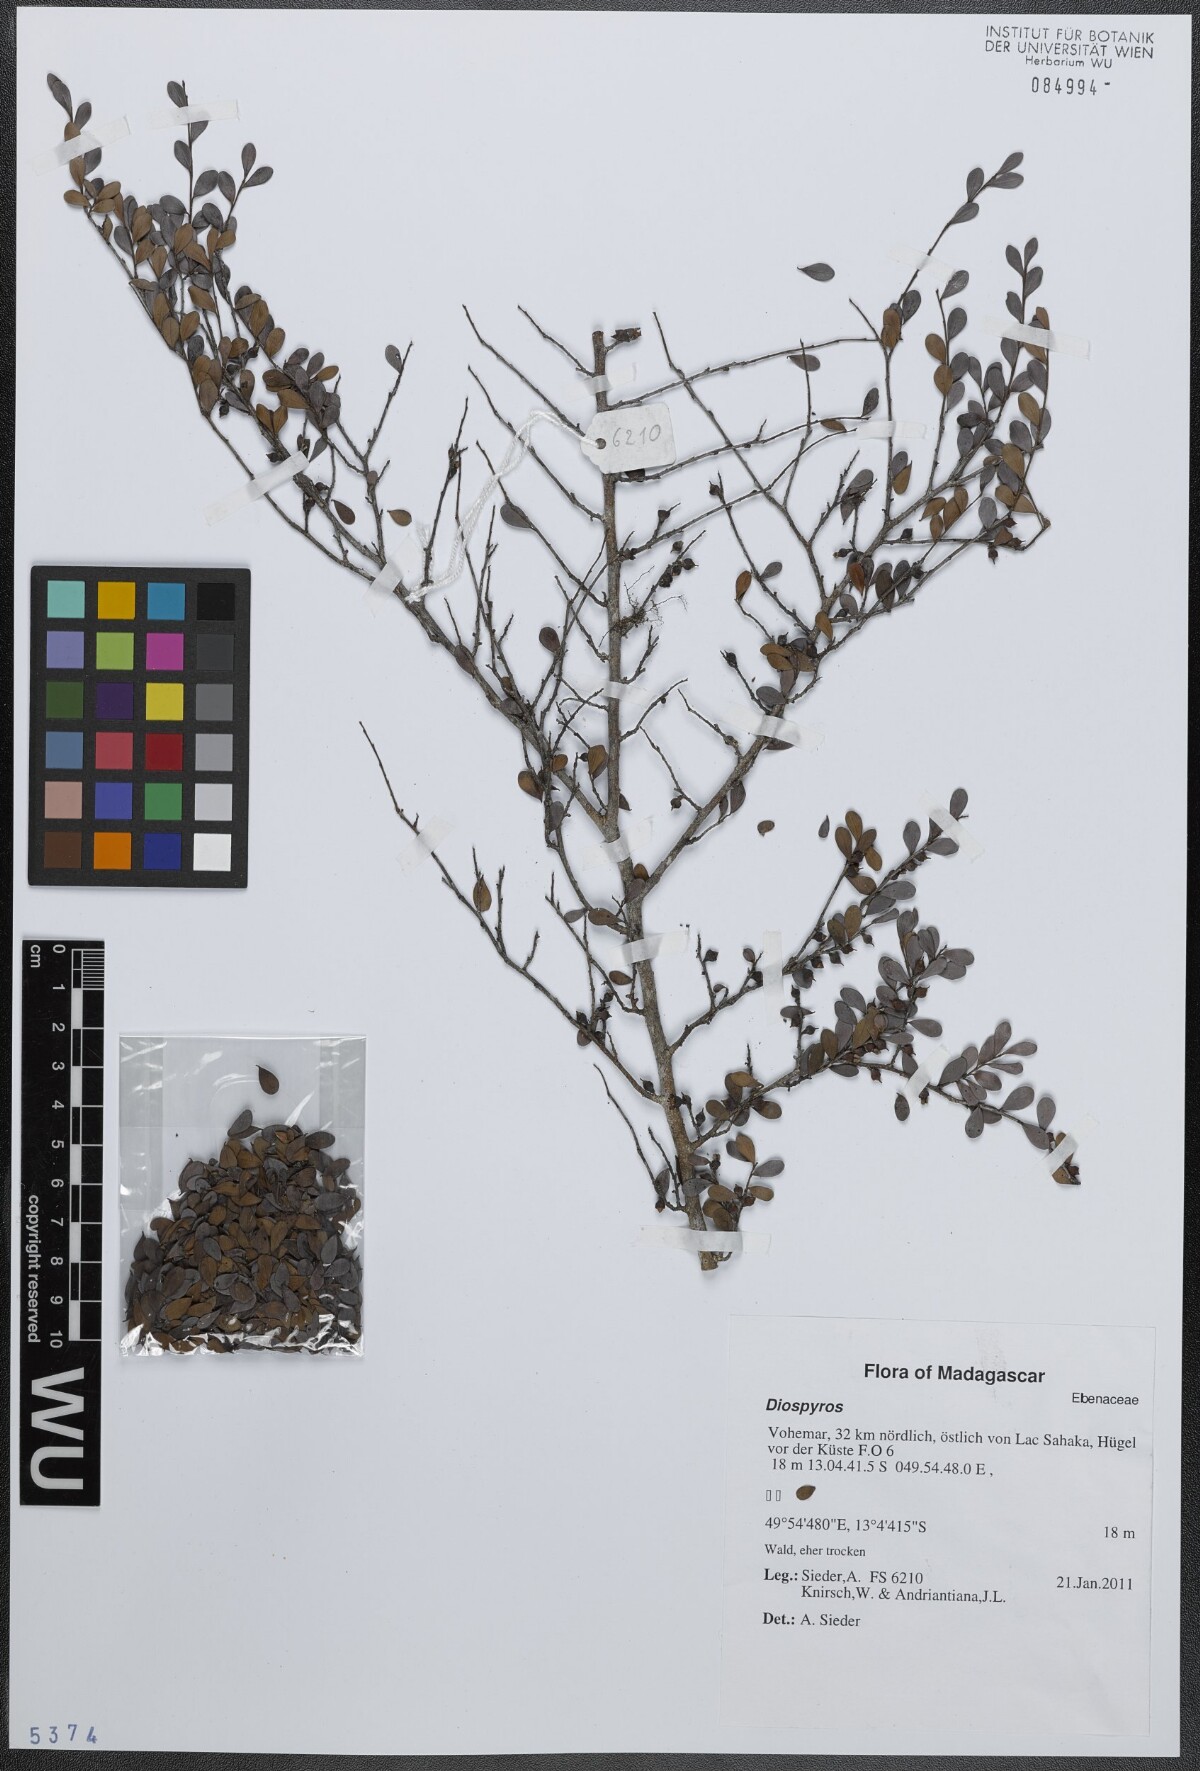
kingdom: Plantae
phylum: Tracheophyta
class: Magnoliopsida
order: Ericales
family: Ebenaceae
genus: Diospyros
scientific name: Diospyros
